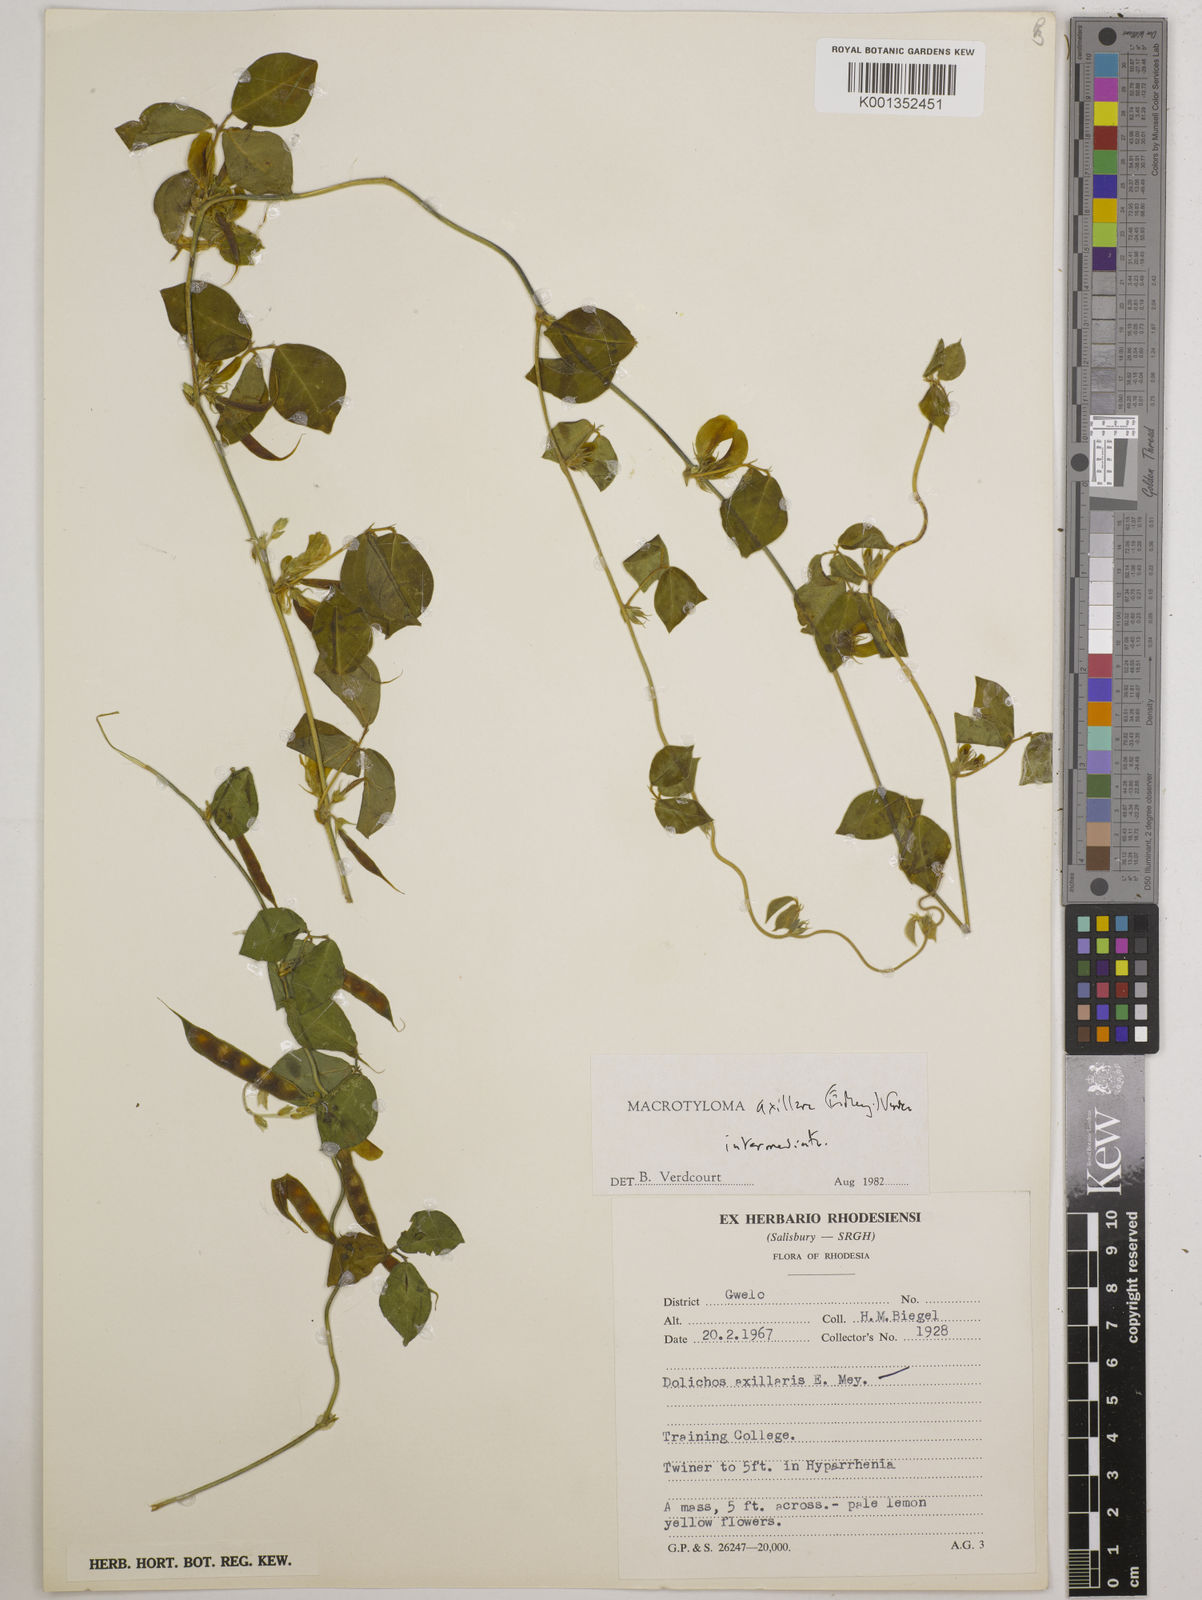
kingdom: Plantae
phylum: Tracheophyta
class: Magnoliopsida
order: Fabales
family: Fabaceae
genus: Macrotyloma
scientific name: Macrotyloma axillare
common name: Perennial horsegram
